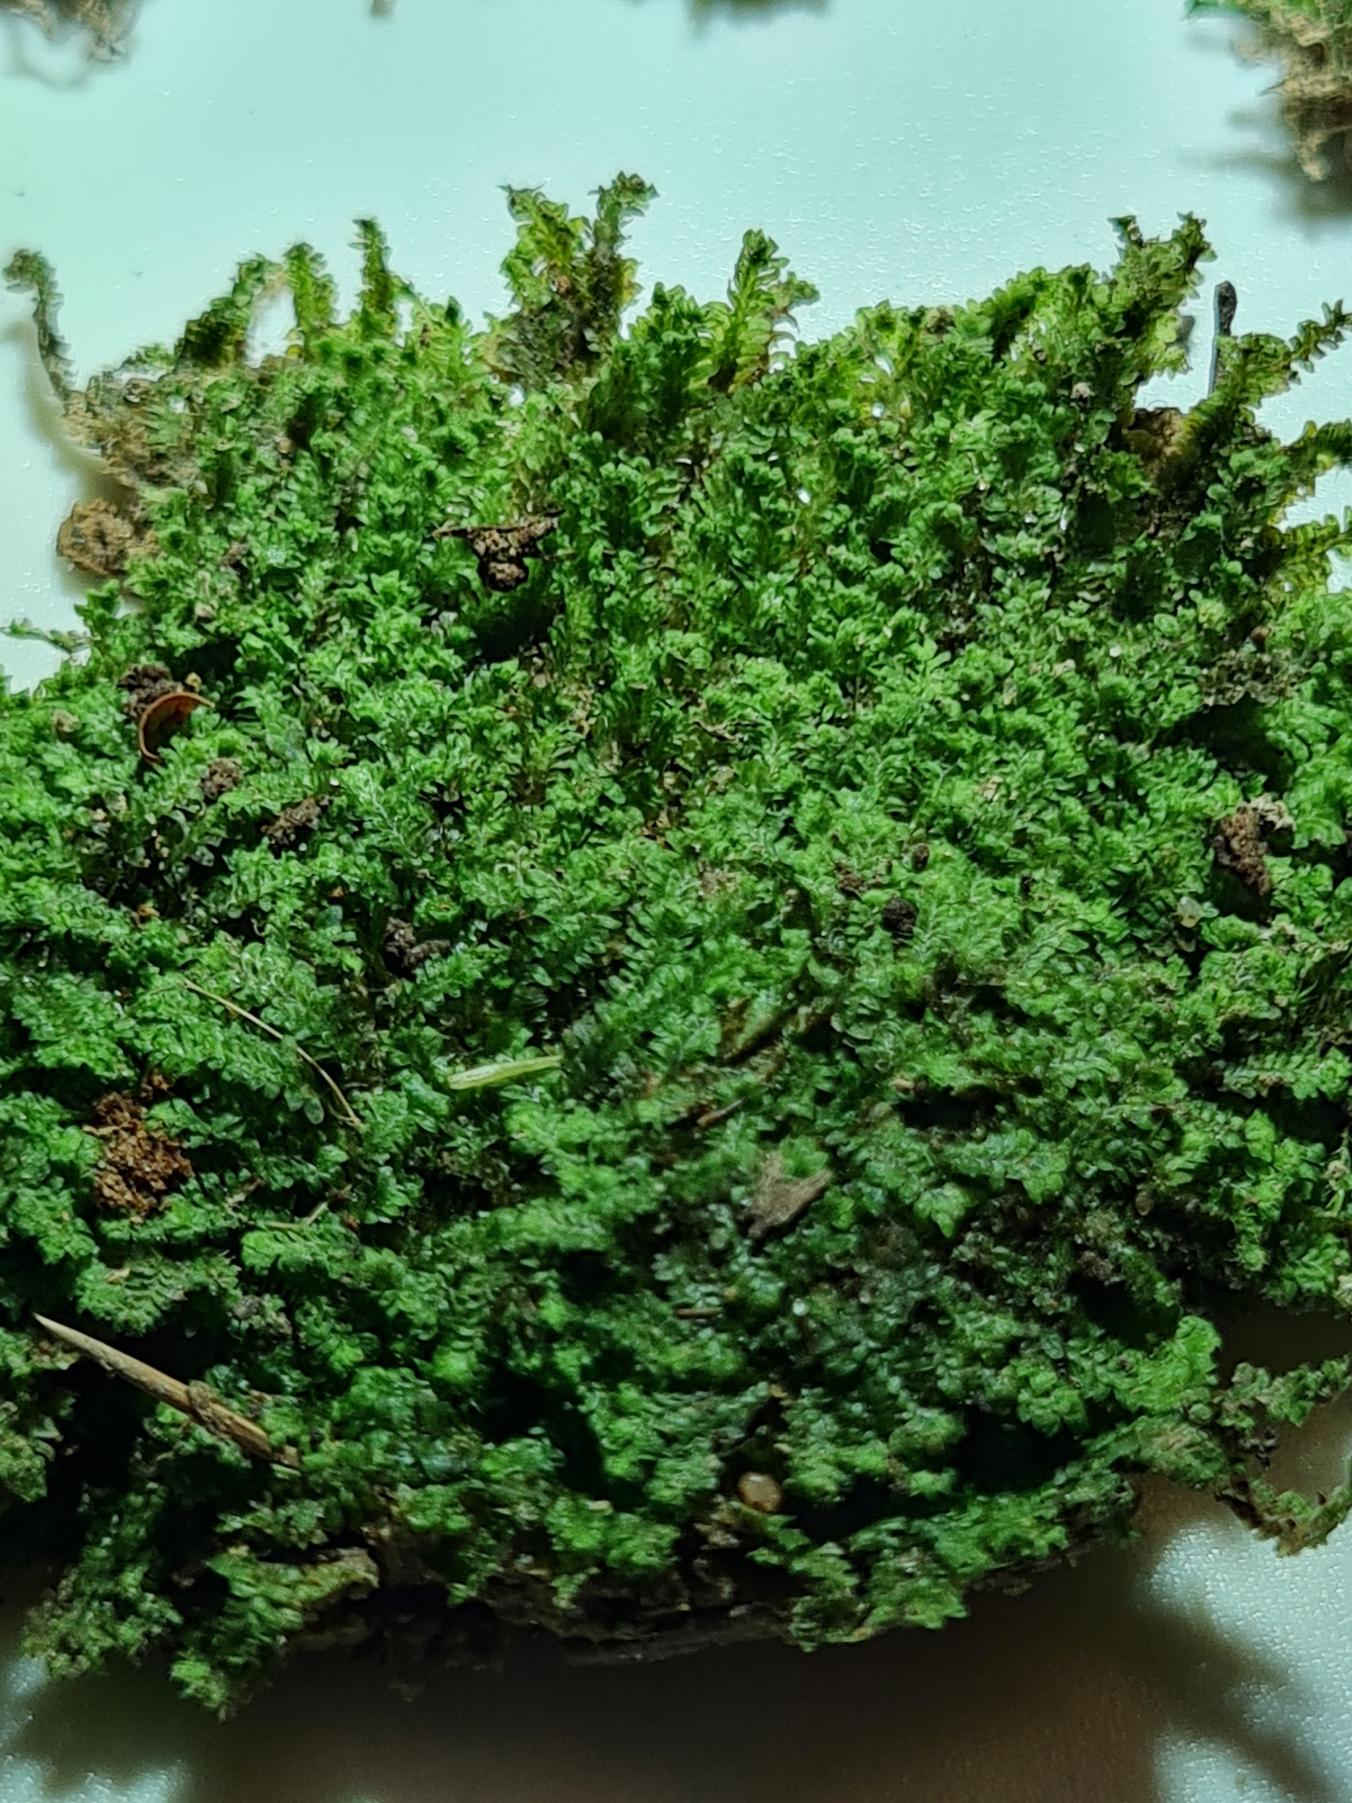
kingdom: Plantae
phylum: Marchantiophyta
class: Jungermanniopsida
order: Jungermanniales
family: Scapaniaceae
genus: Diplophyllum
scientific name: Diplophyllum albicans
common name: Stribet dobbeltblad
